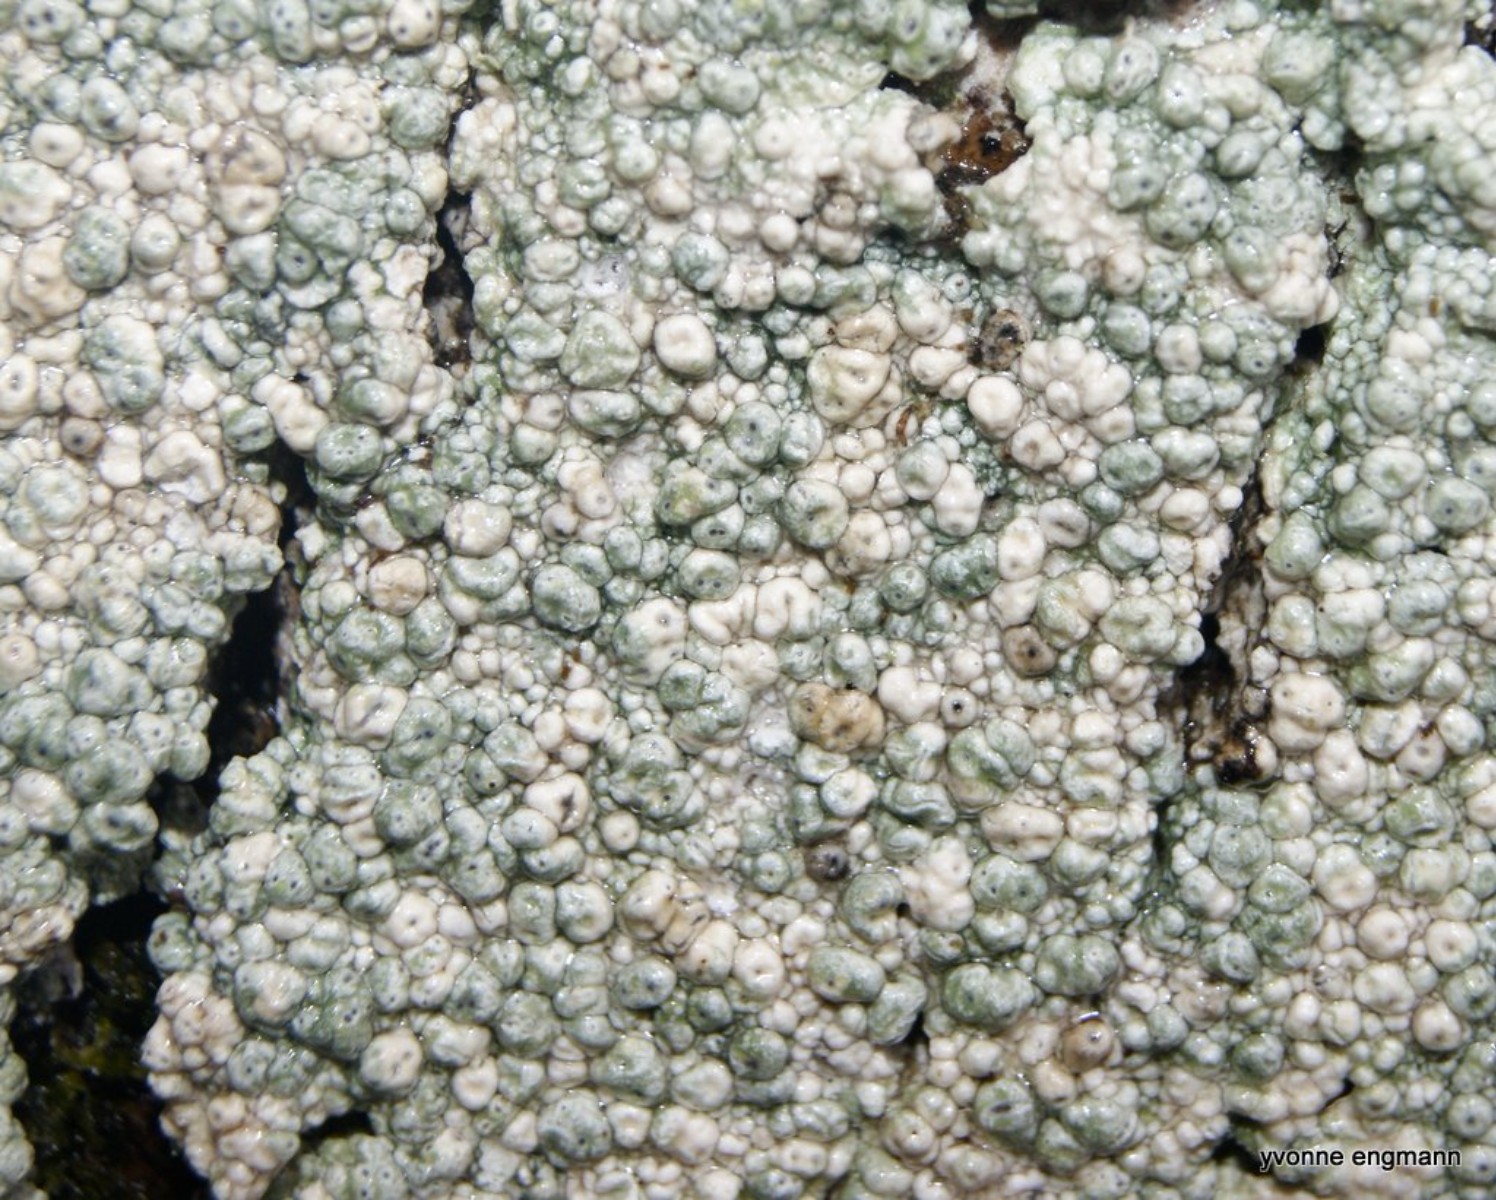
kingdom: Fungi
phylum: Ascomycota
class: Lecanoromycetes
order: Pertusariales
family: Pertusariaceae
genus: Pertusaria
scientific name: Pertusaria hymenea
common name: åben prikvortelav
